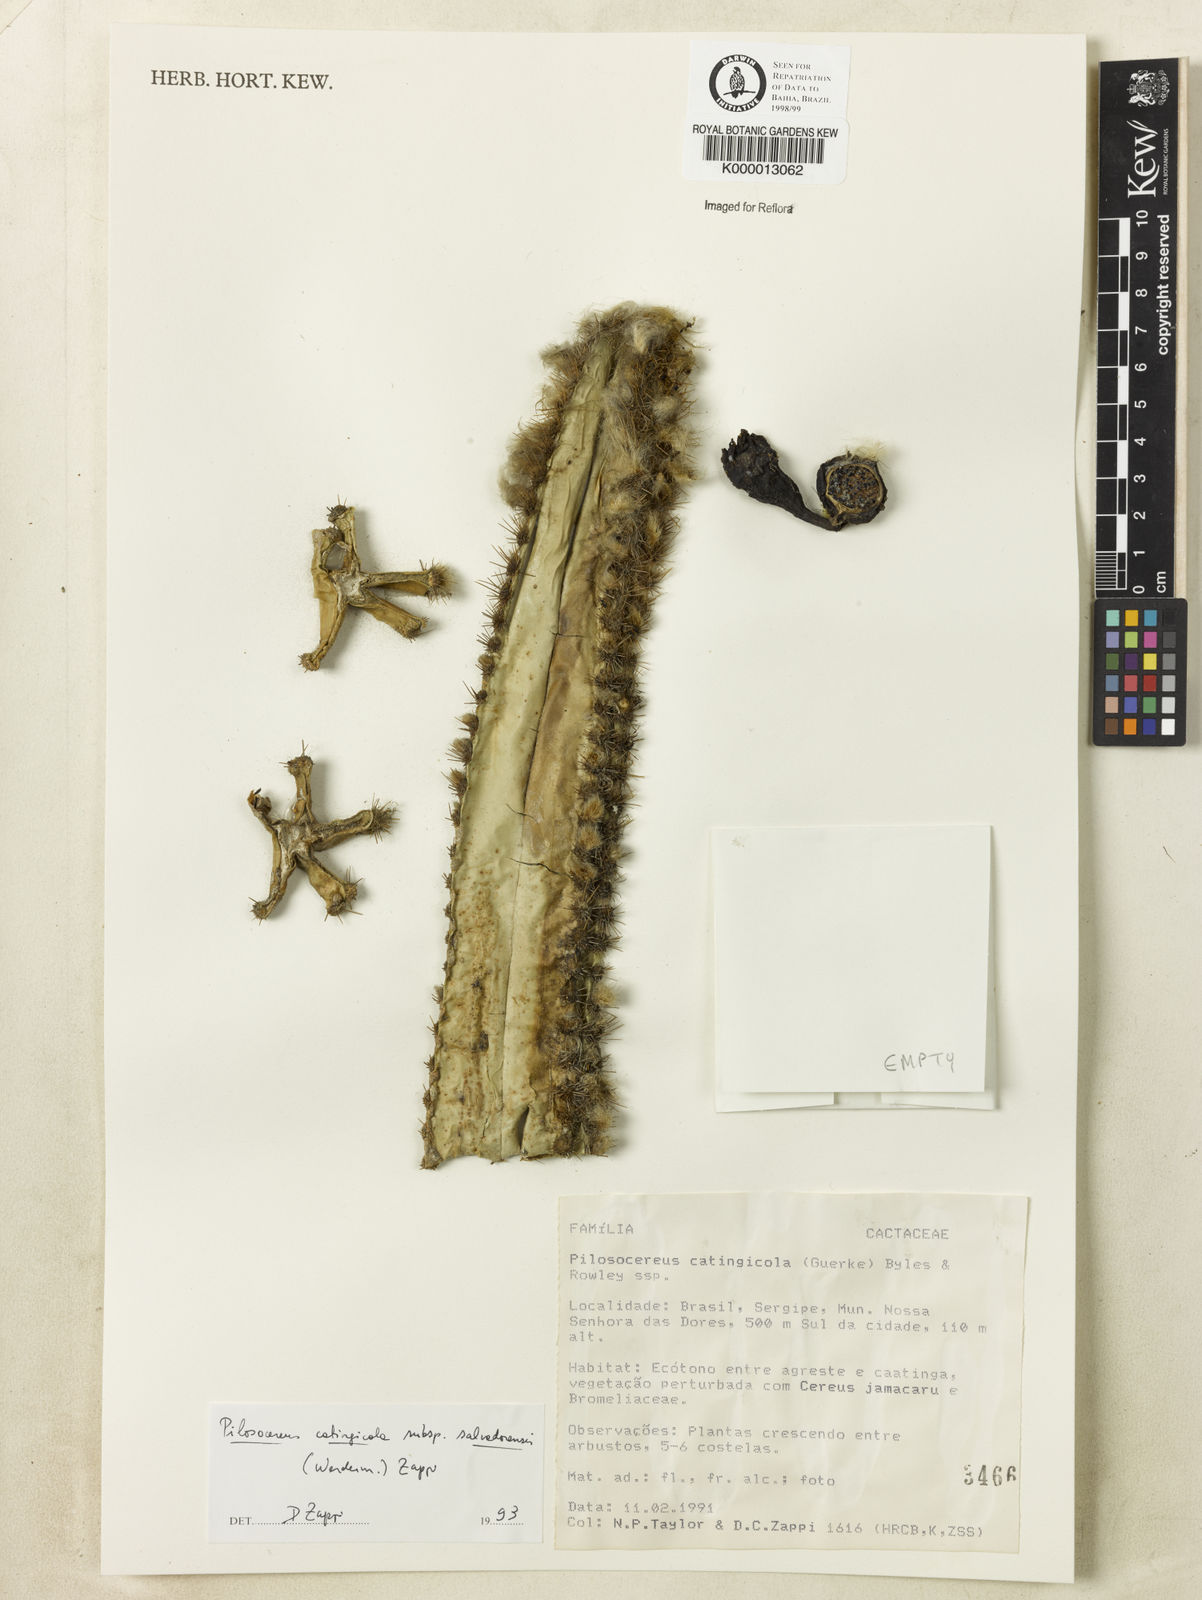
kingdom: Plantae
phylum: Tracheophyta
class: Magnoliopsida
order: Caryophyllales
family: Cactaceae
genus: Pilosocereus
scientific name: Pilosocereus catingicola
